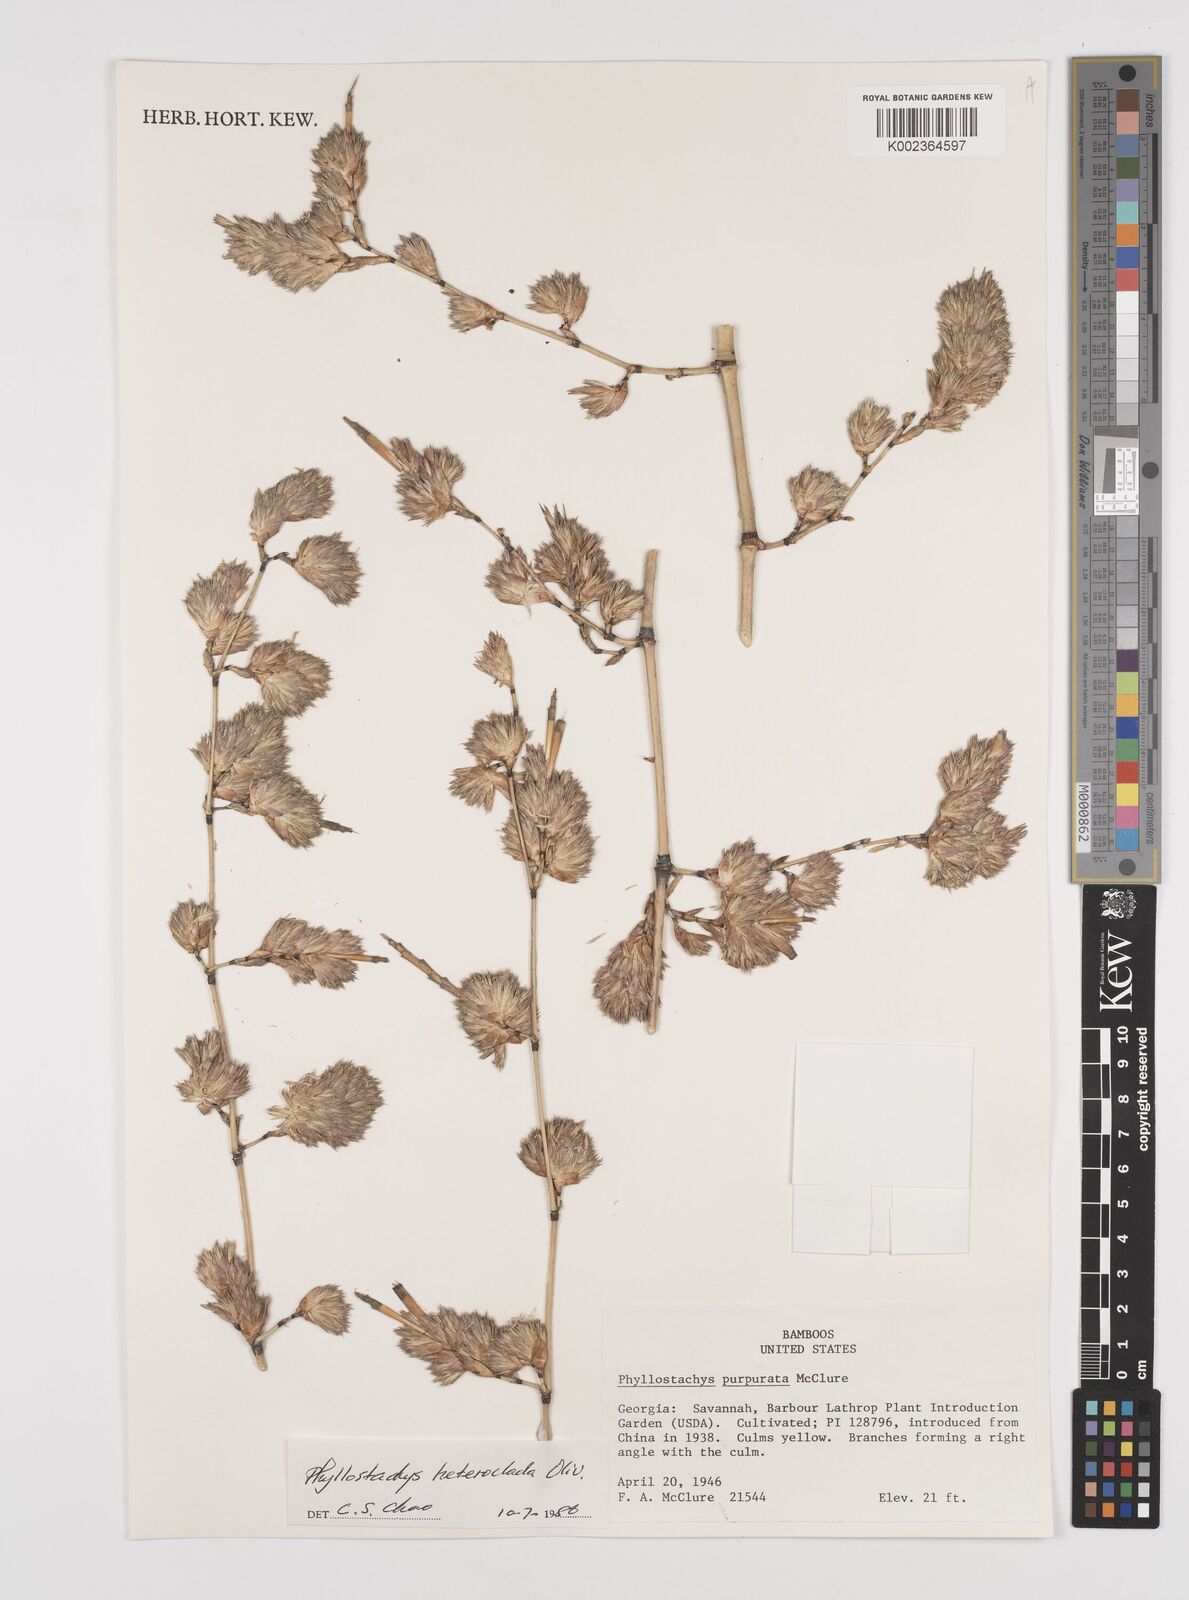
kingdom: Plantae
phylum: Tracheophyta
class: Liliopsida
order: Poales
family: Poaceae
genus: Phyllostachys
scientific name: Phyllostachys heteroclada
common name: Fishscale bamboo
